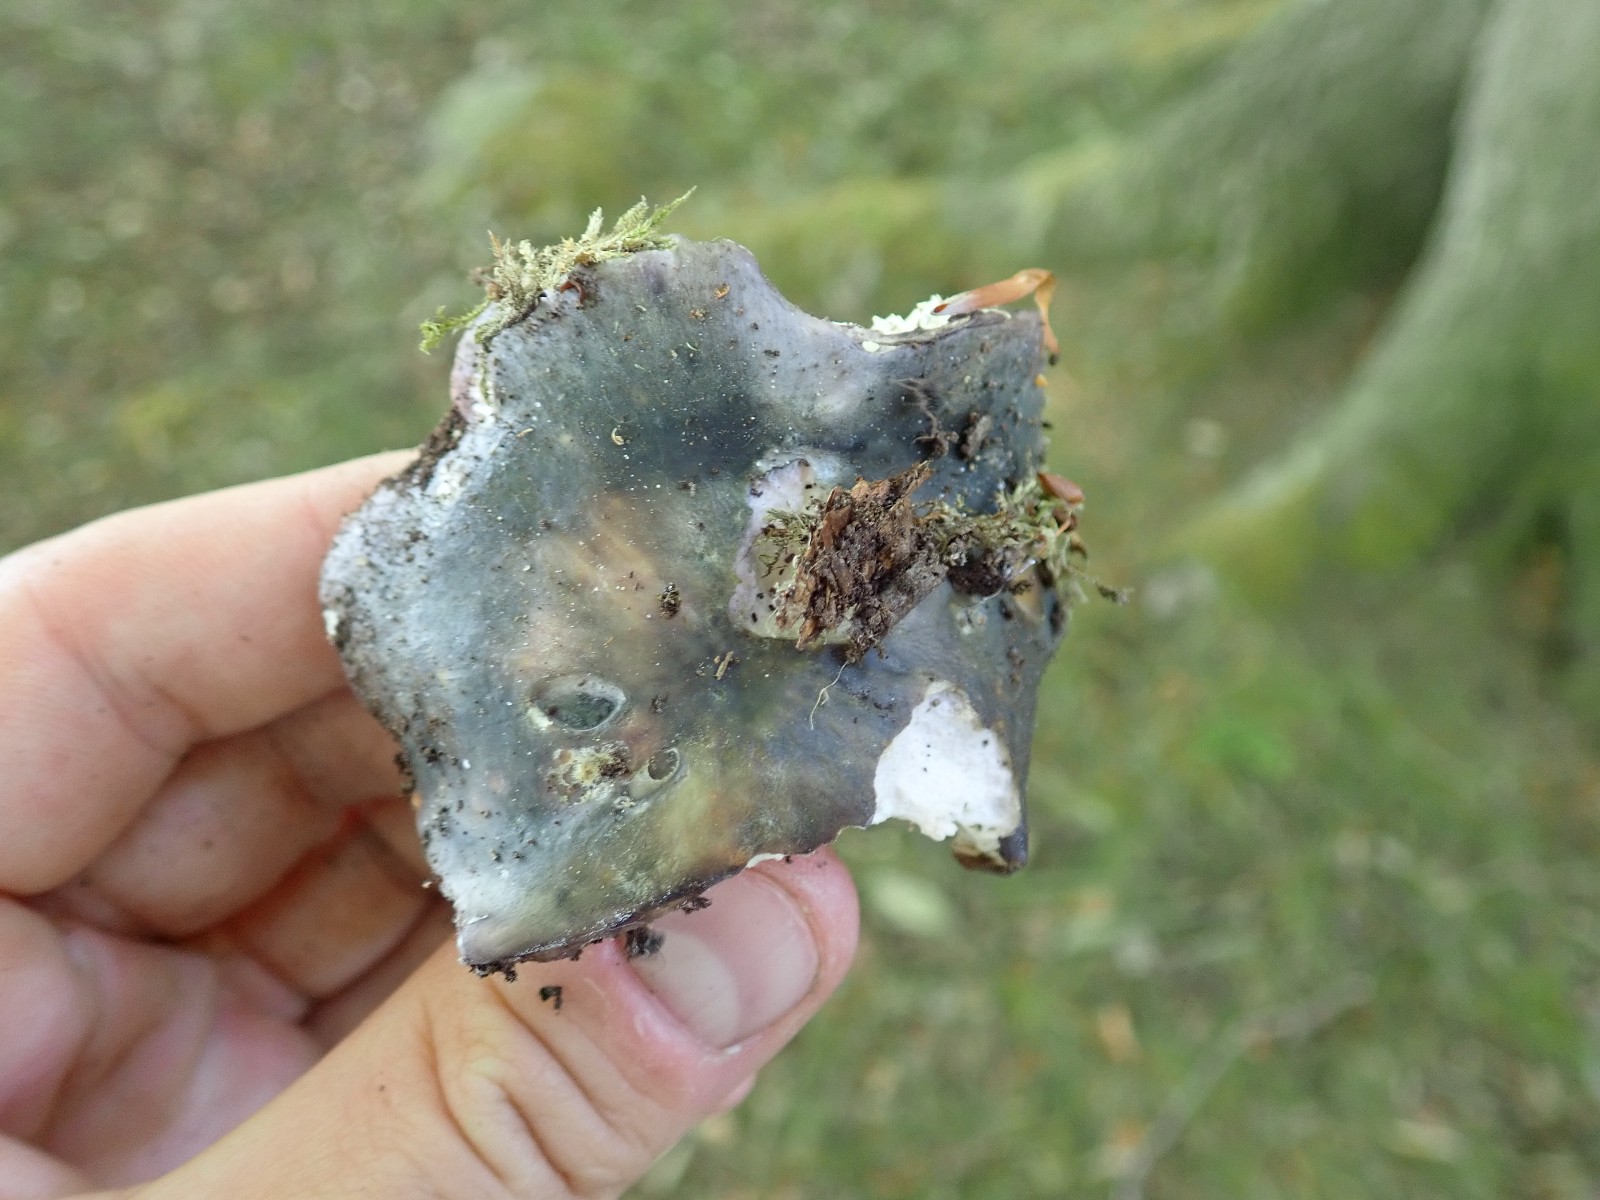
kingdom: Fungi
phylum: Basidiomycota
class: Agaricomycetes
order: Russulales
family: Russulaceae
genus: Russula
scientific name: Russula
